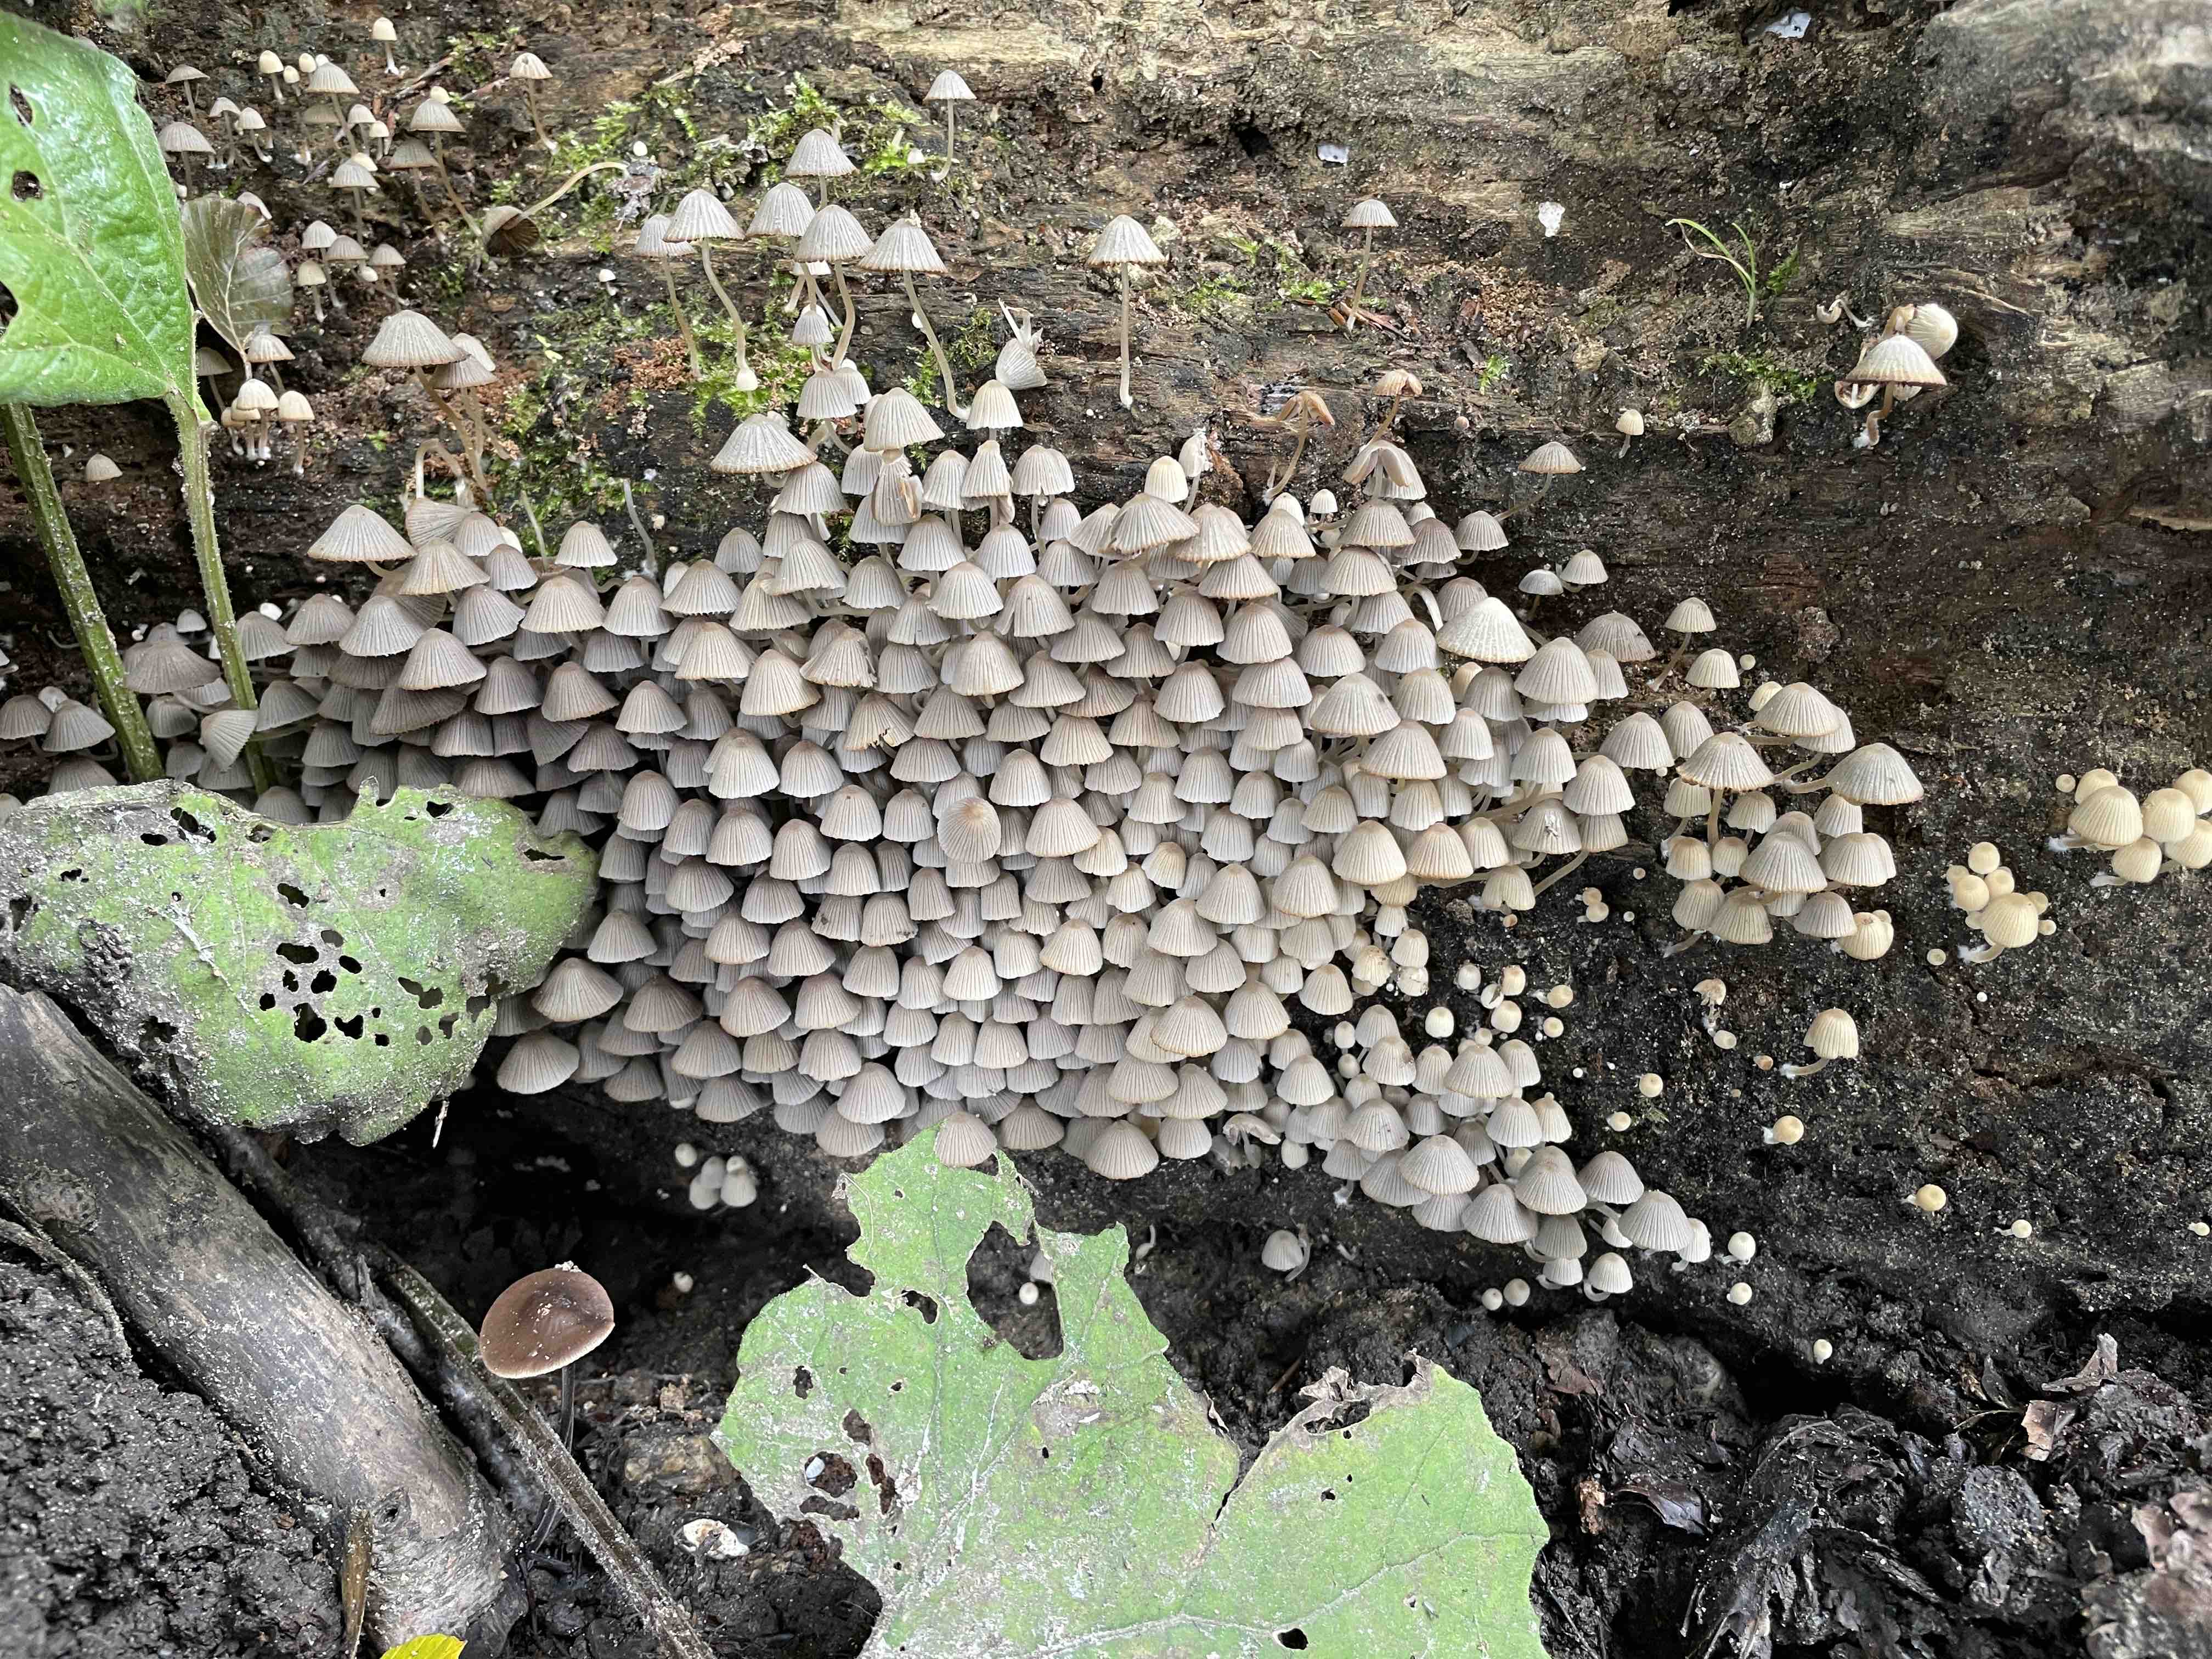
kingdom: Fungi
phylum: Basidiomycota
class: Agaricomycetes
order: Agaricales
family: Psathyrellaceae
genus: Coprinellus
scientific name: Coprinellus disseminatus
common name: bredsået blækhat
